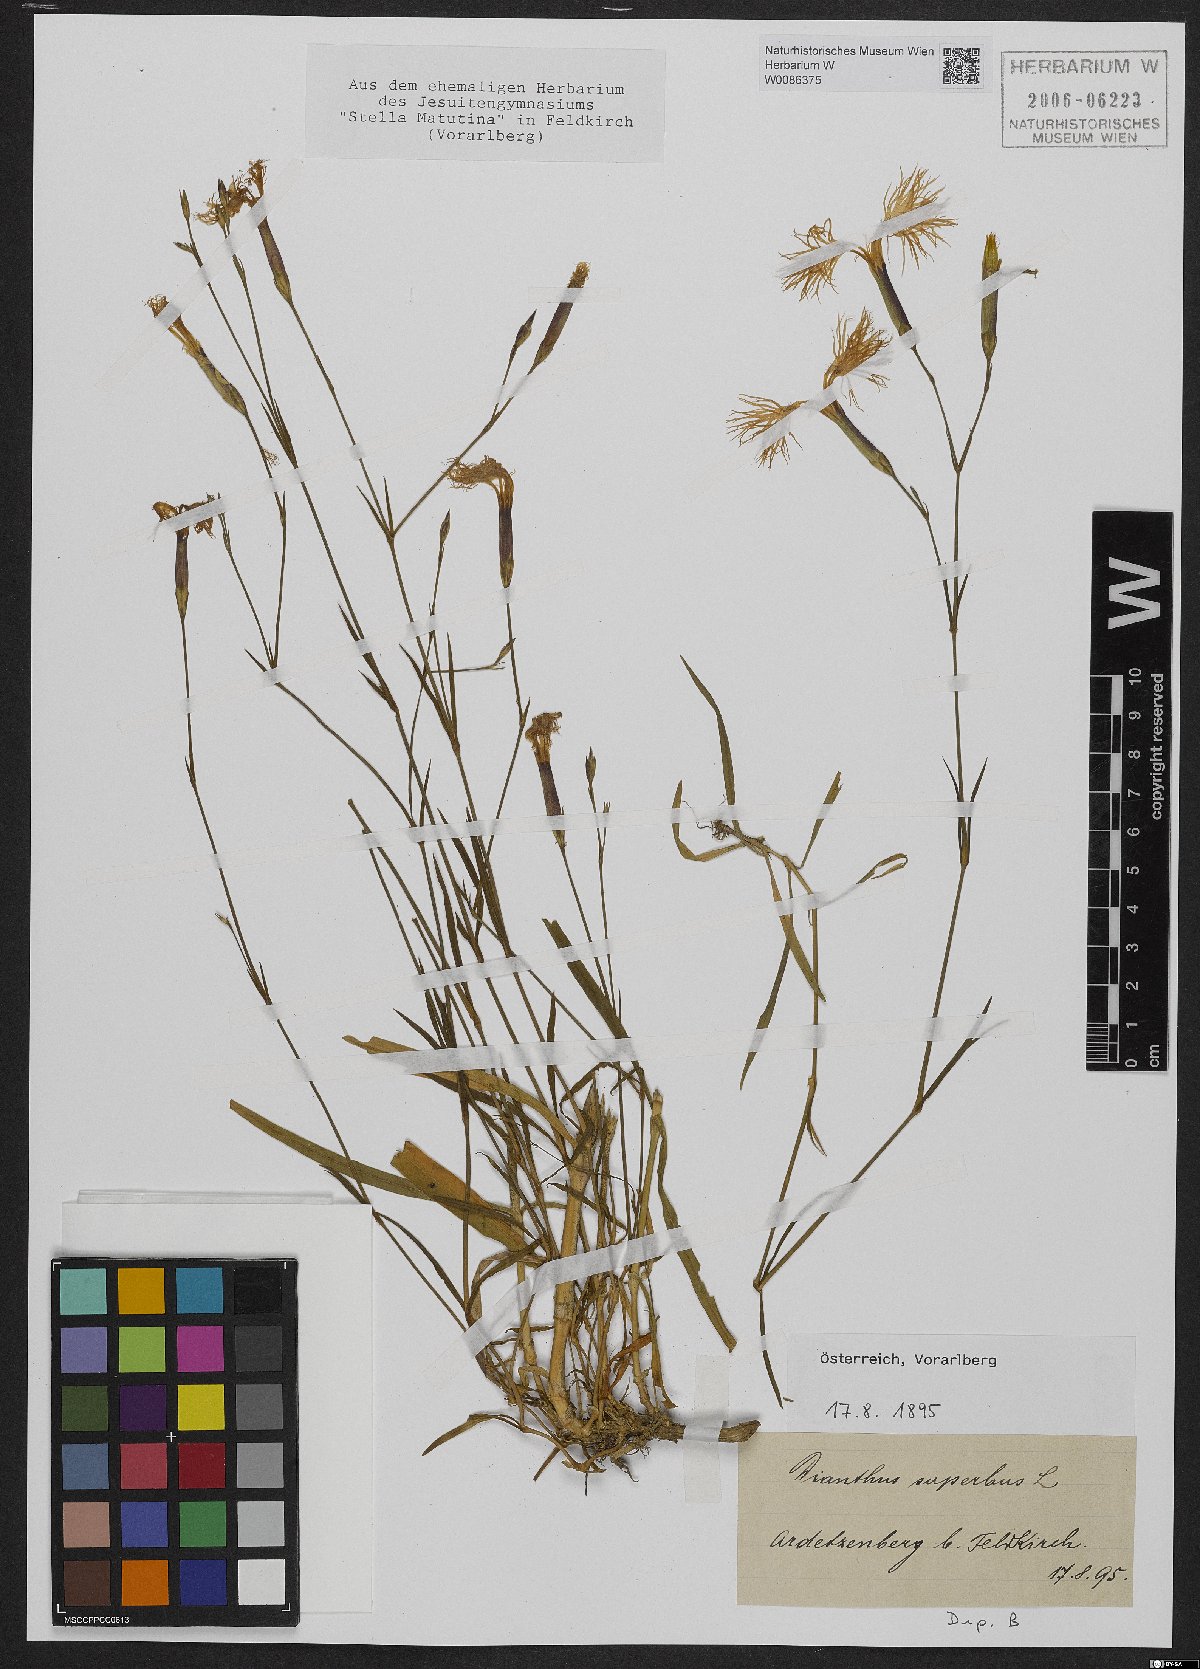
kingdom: Plantae
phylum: Tracheophyta
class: Magnoliopsida
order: Caryophyllales
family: Caryophyllaceae
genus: Dianthus
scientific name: Dianthus superbus
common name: Fringed pink
